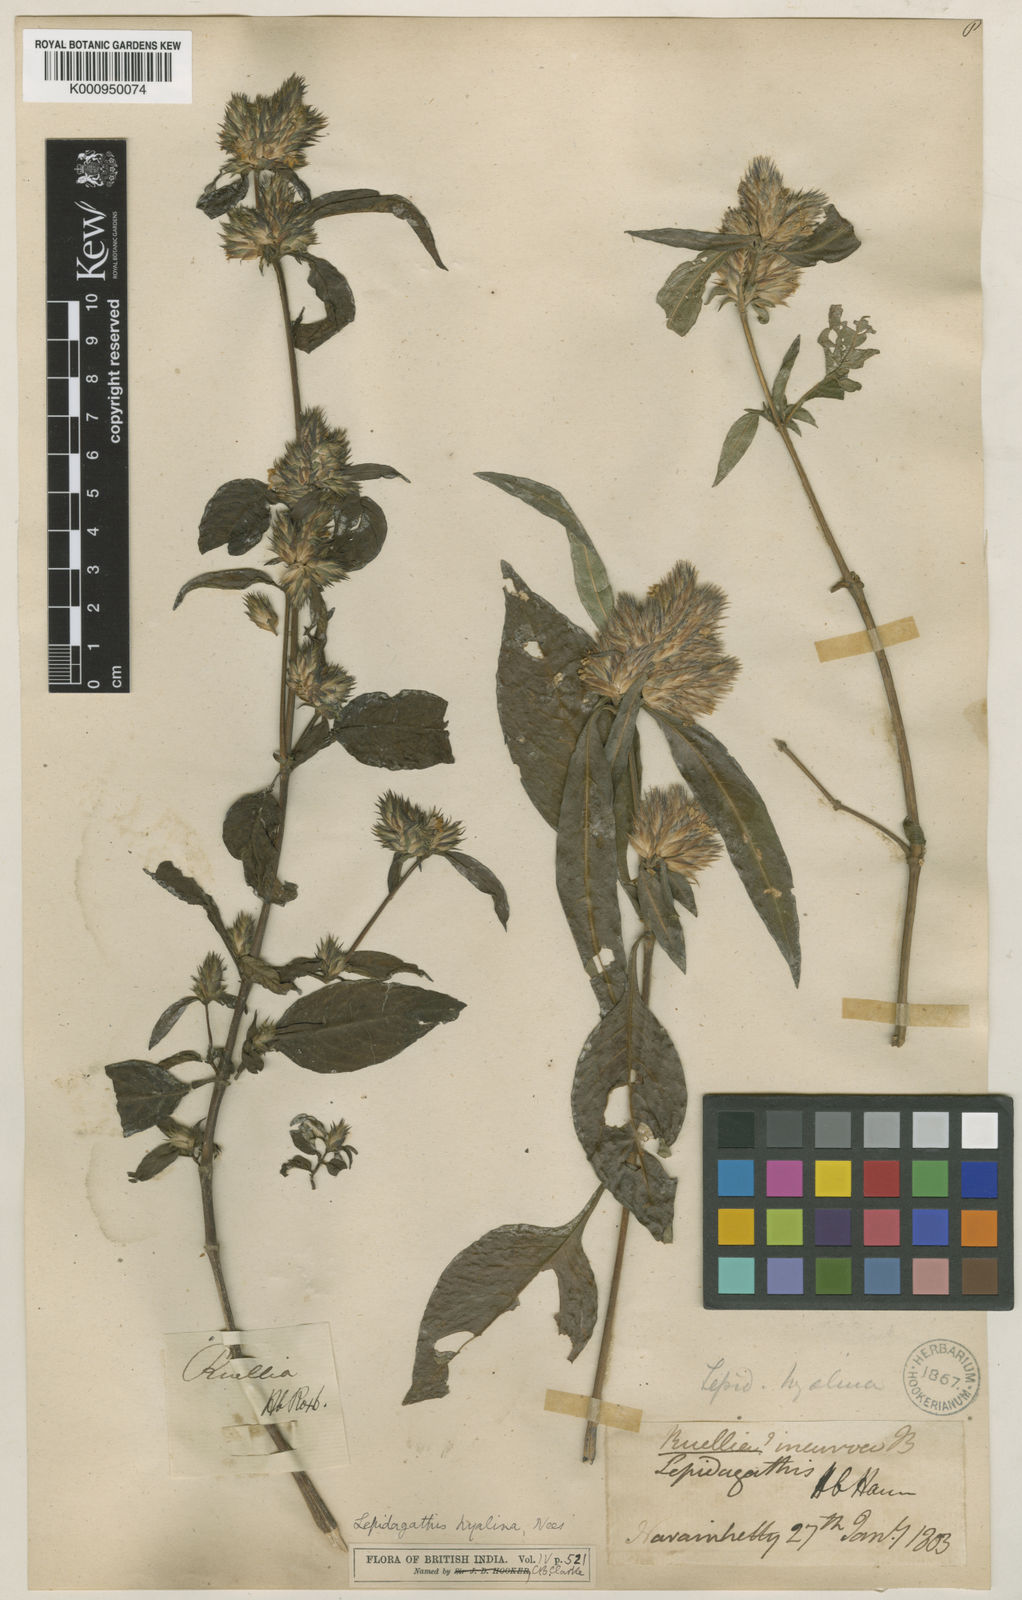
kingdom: Plantae
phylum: Tracheophyta
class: Magnoliopsida
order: Lamiales
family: Acanthaceae
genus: Lepidagathis
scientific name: Lepidagathis incurva
